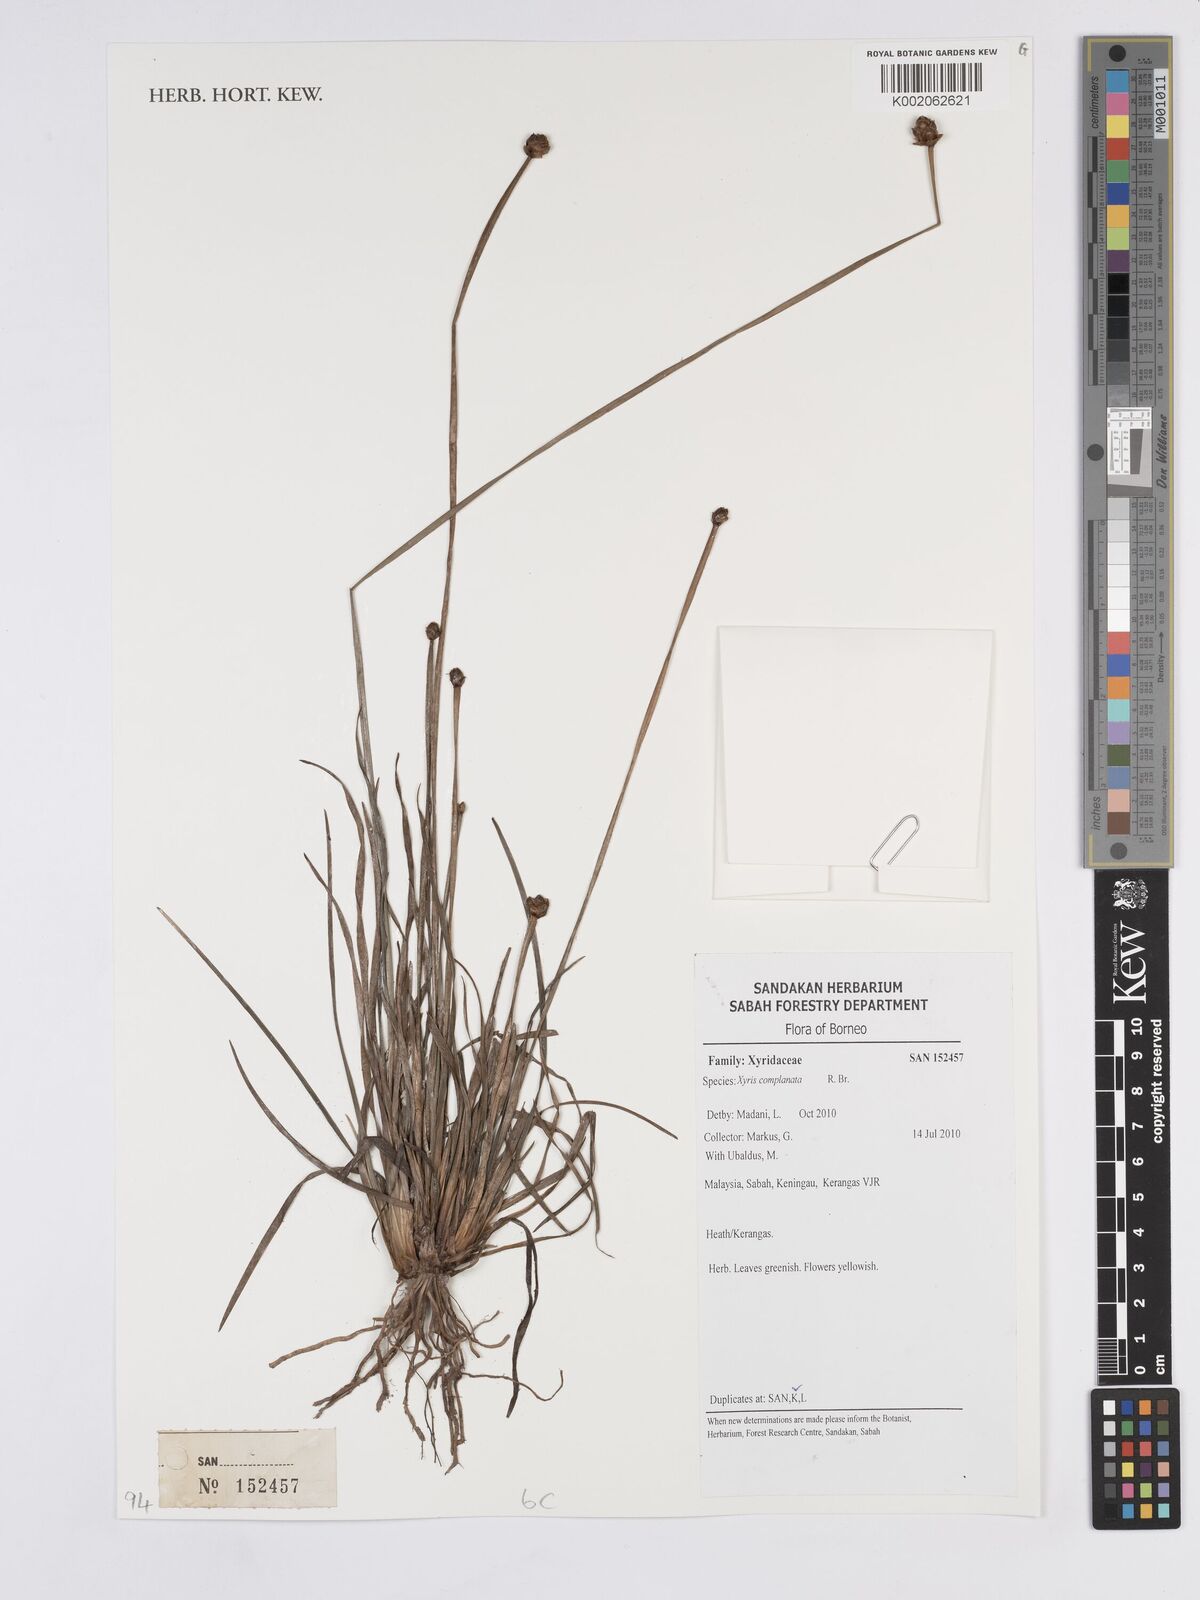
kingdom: Plantae
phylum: Tracheophyta
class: Liliopsida
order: Poales
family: Xyridaceae
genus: Xyris
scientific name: Xyris complanata
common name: Hawai'i yelloweyed grass
